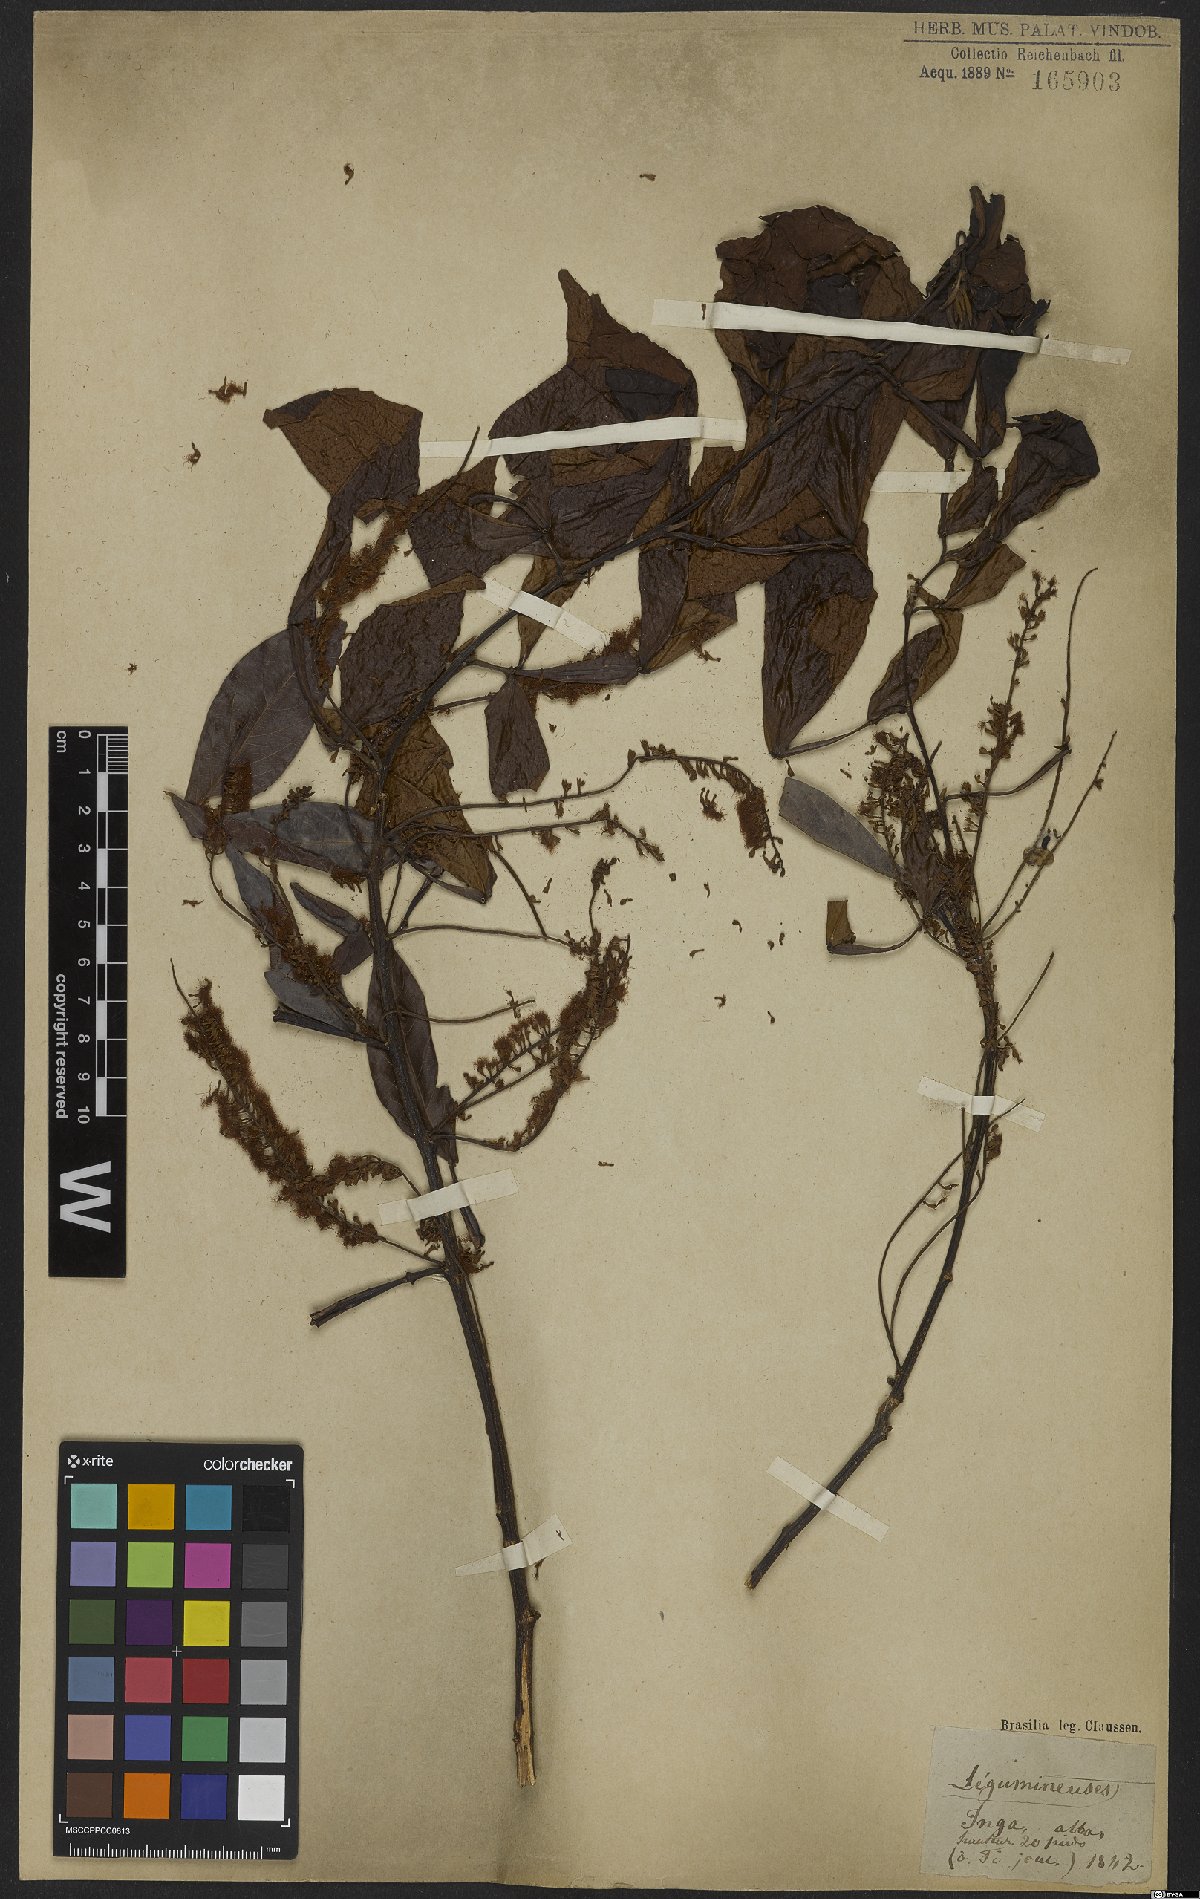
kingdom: Plantae
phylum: Tracheophyta
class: Magnoliopsida
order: Fabales
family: Fabaceae
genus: Inga
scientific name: Inga alba
